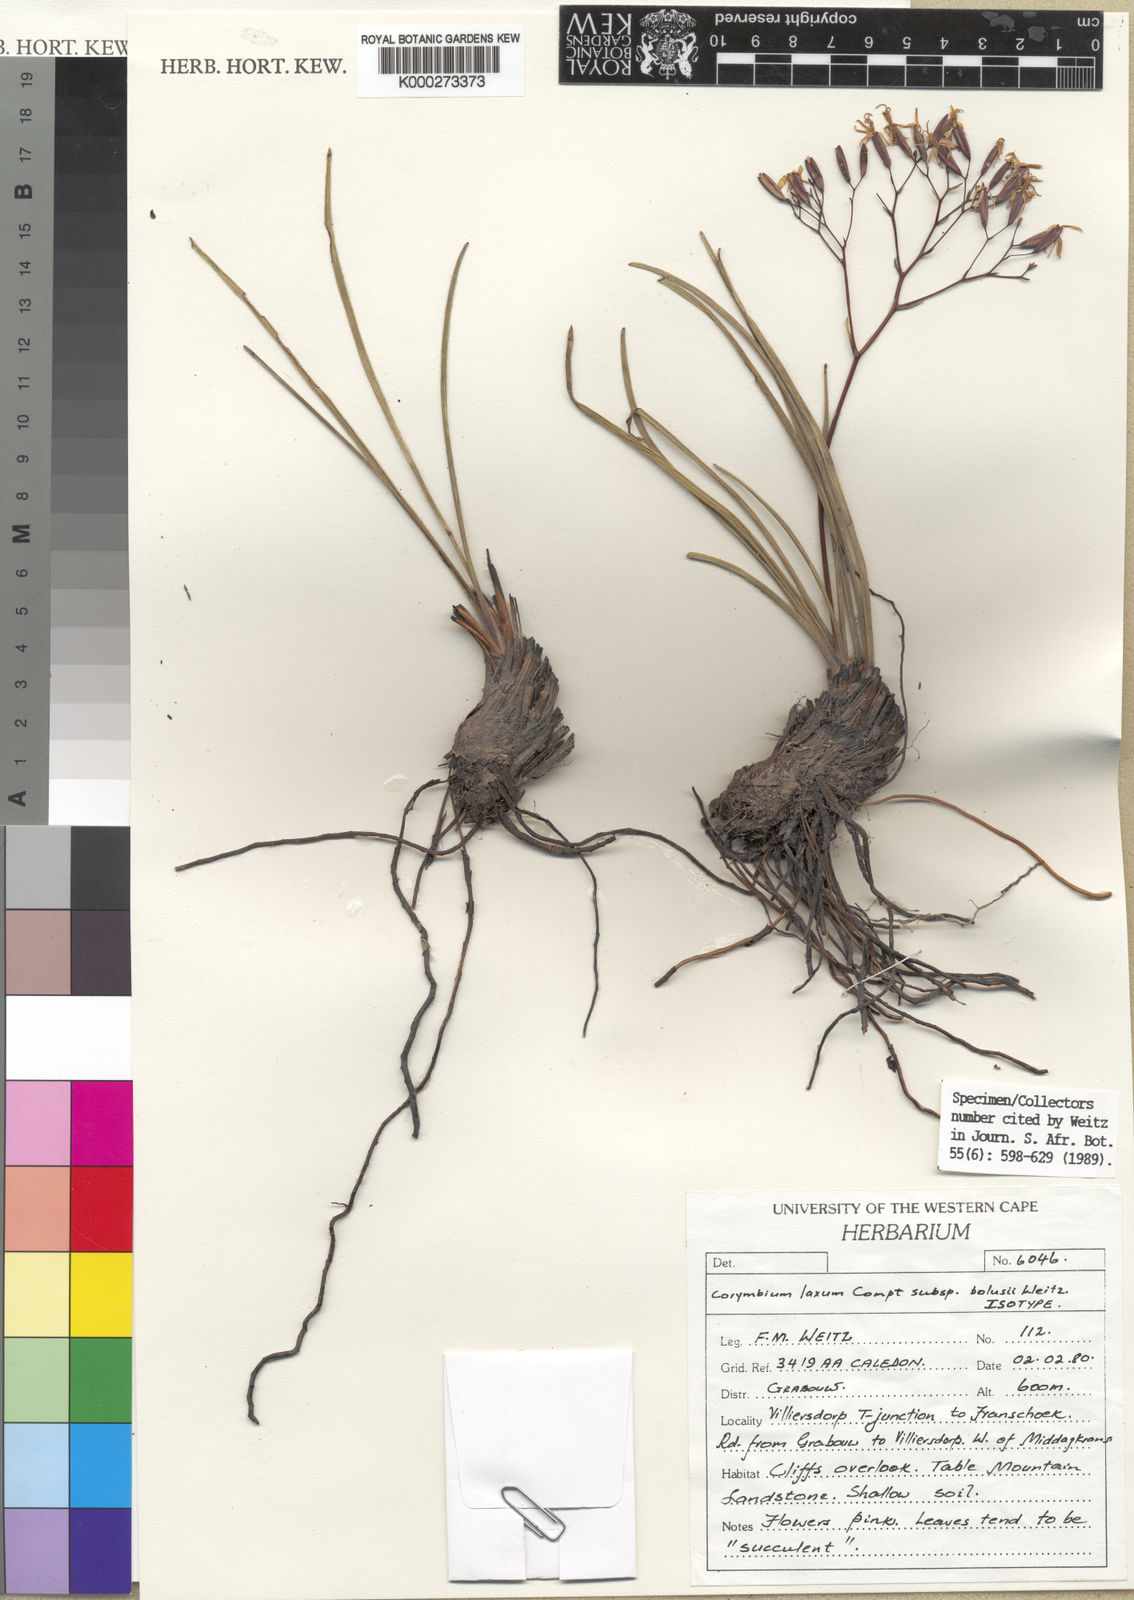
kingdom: Plantae
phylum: Tracheophyta
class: Magnoliopsida
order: Asterales
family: Asteraceae
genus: Corymbium
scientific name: Corymbium laxum
